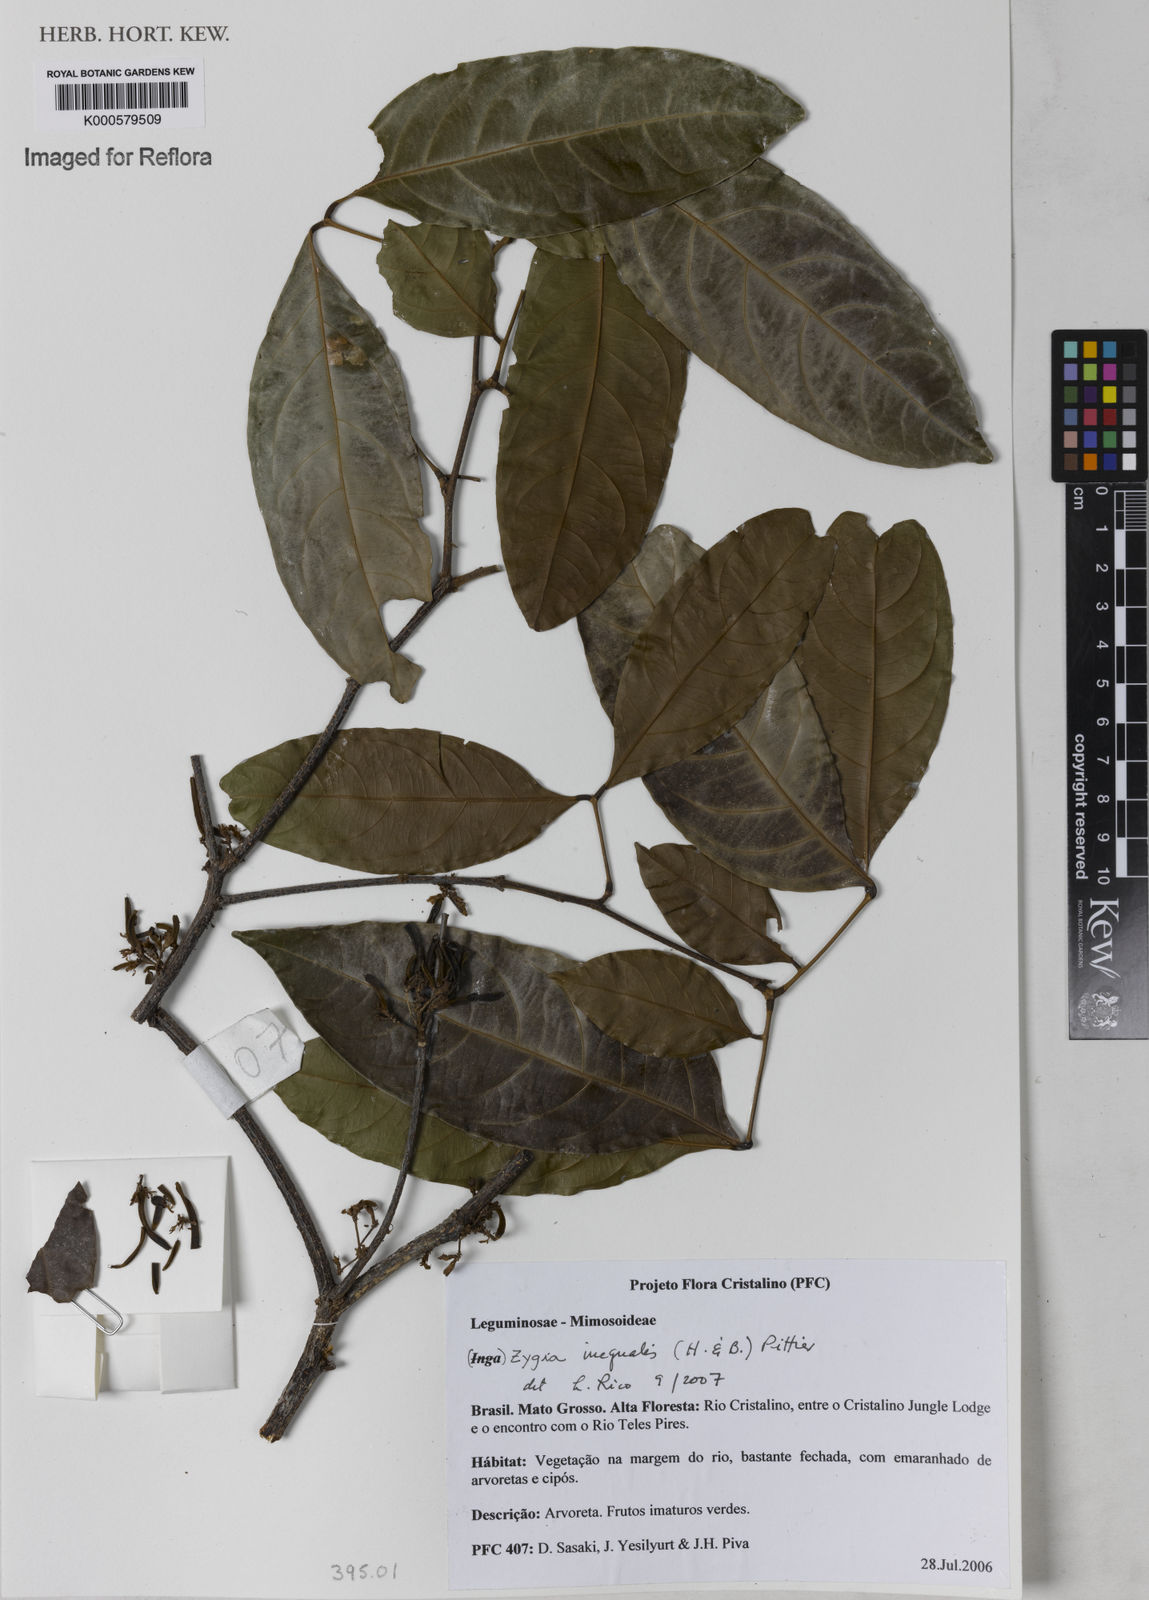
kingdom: Plantae
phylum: Tracheophyta
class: Magnoliopsida
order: Fabales
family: Fabaceae
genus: Zygia
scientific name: Zygia inaequalis
